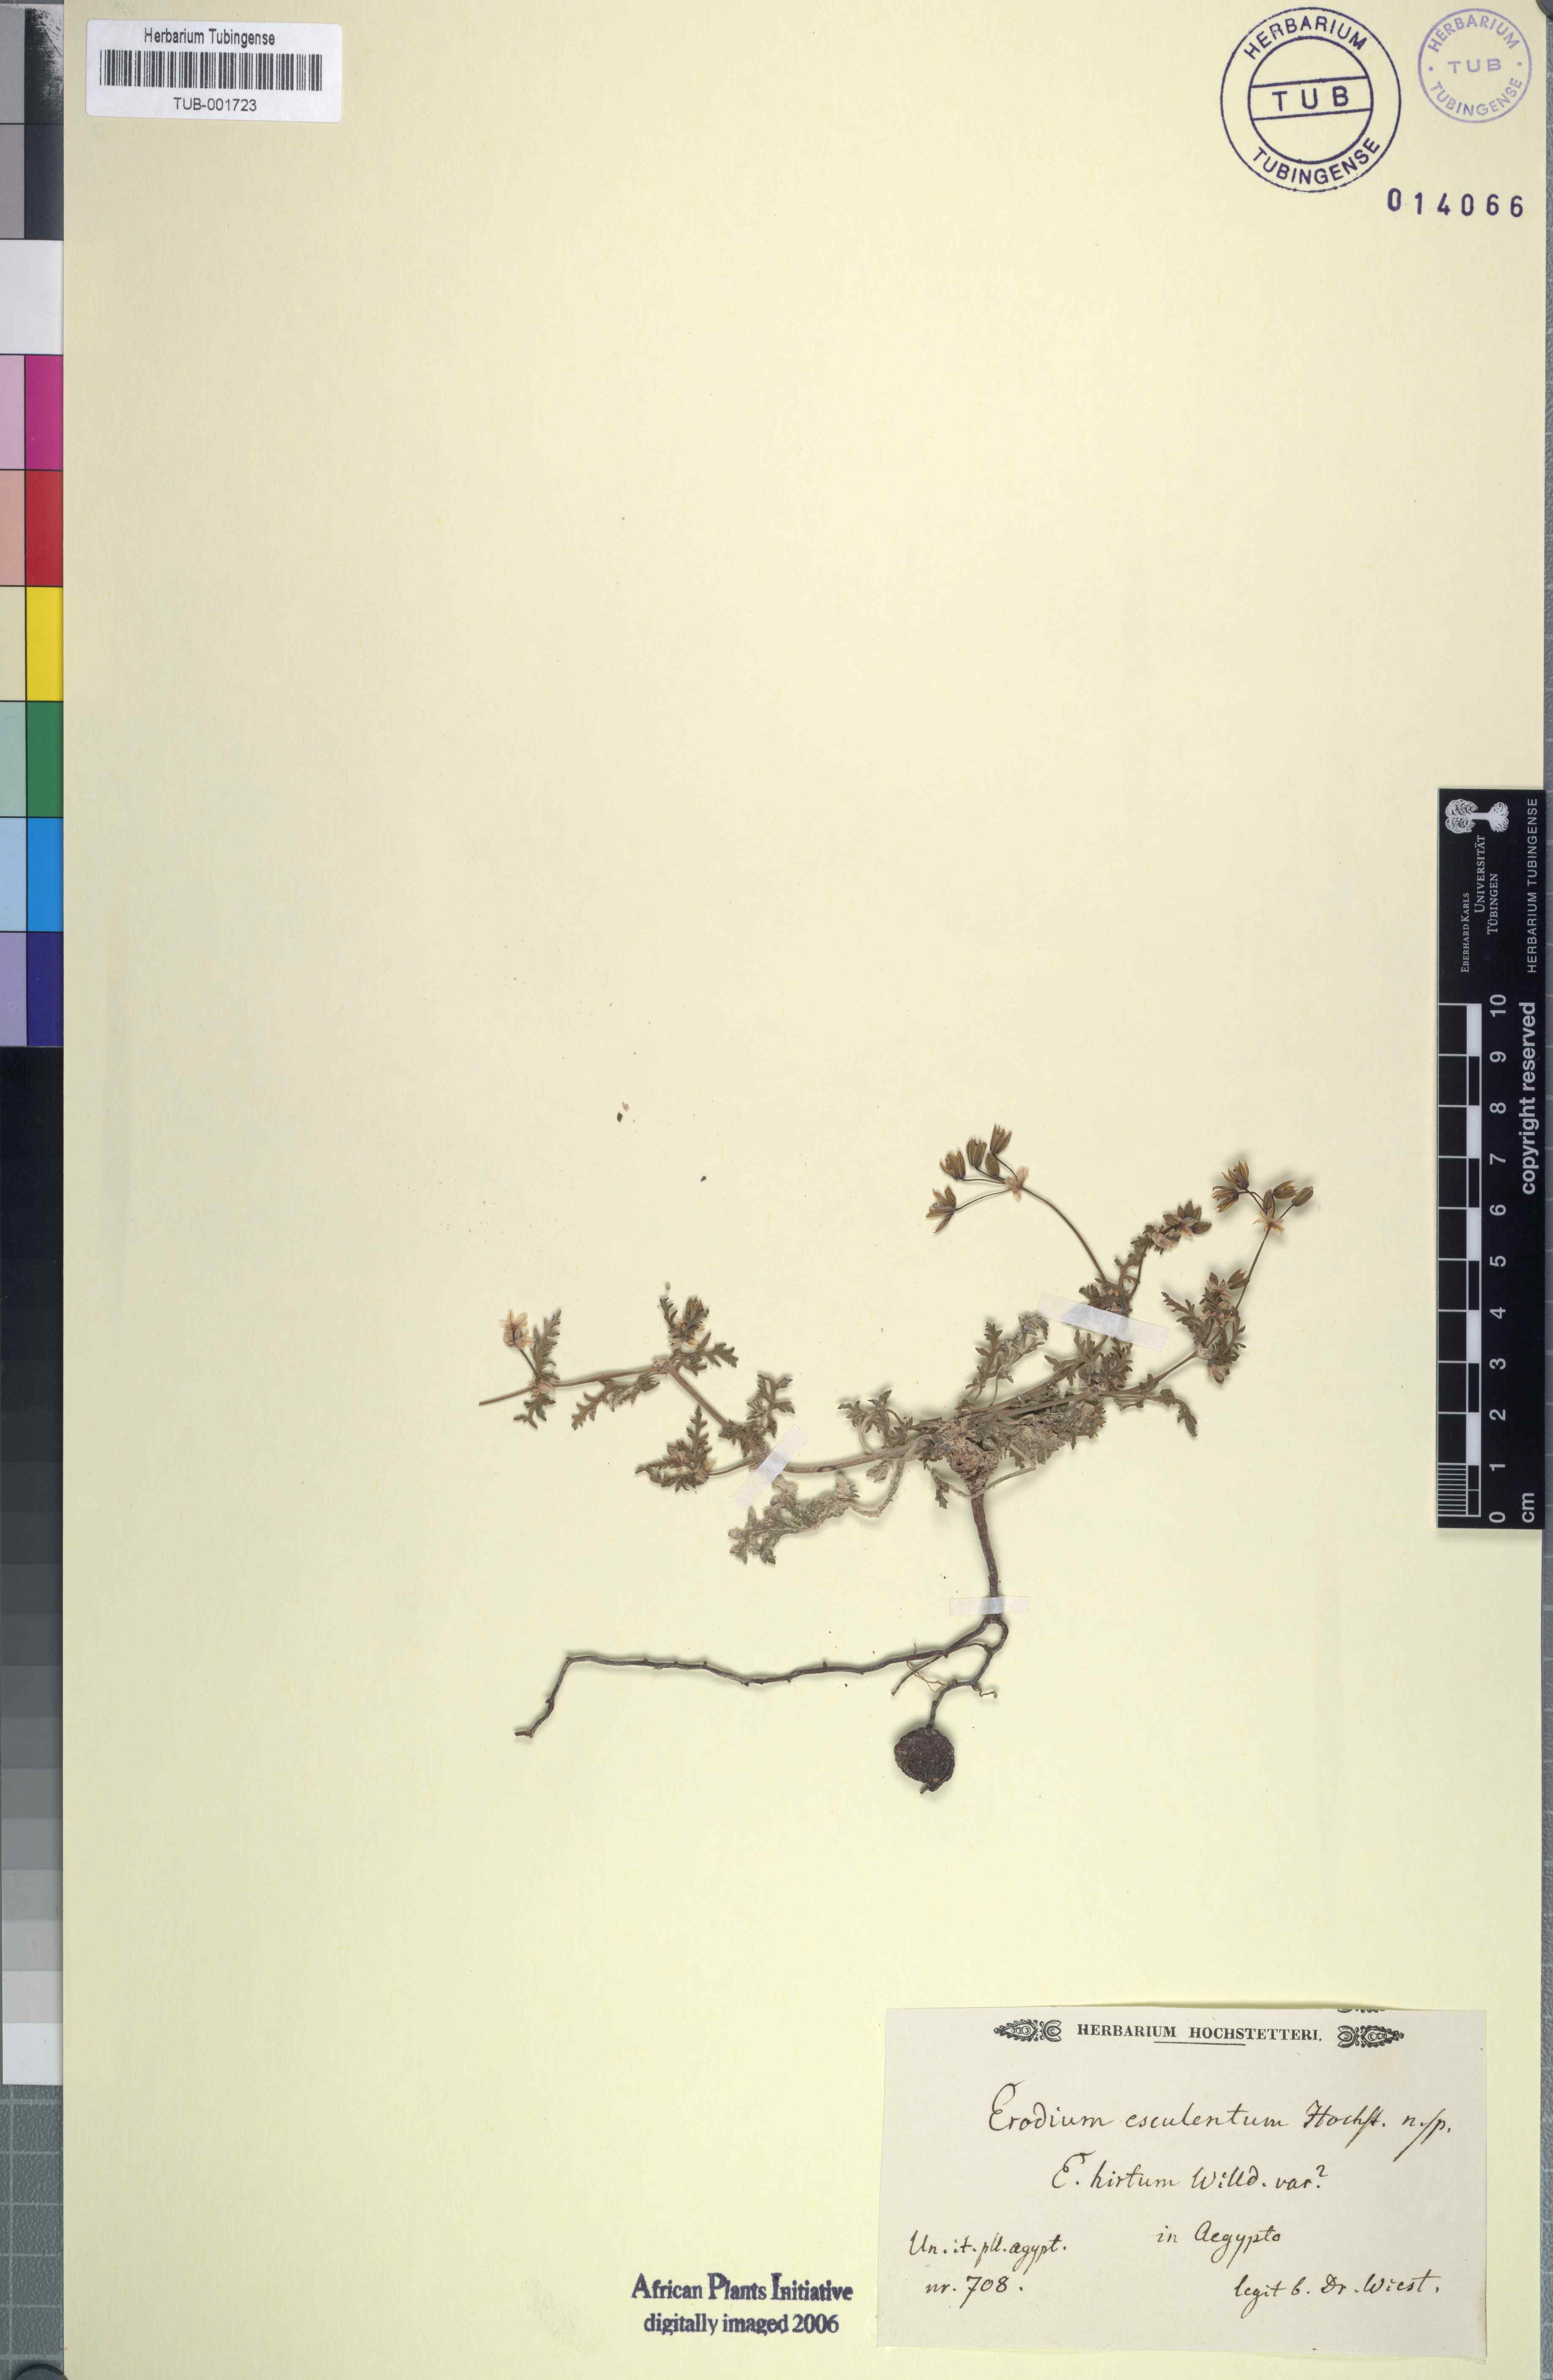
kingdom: Plantae
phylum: Tracheophyta
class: Magnoliopsida
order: Geraniales
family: Geraniaceae
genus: Erodium
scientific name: Erodium
